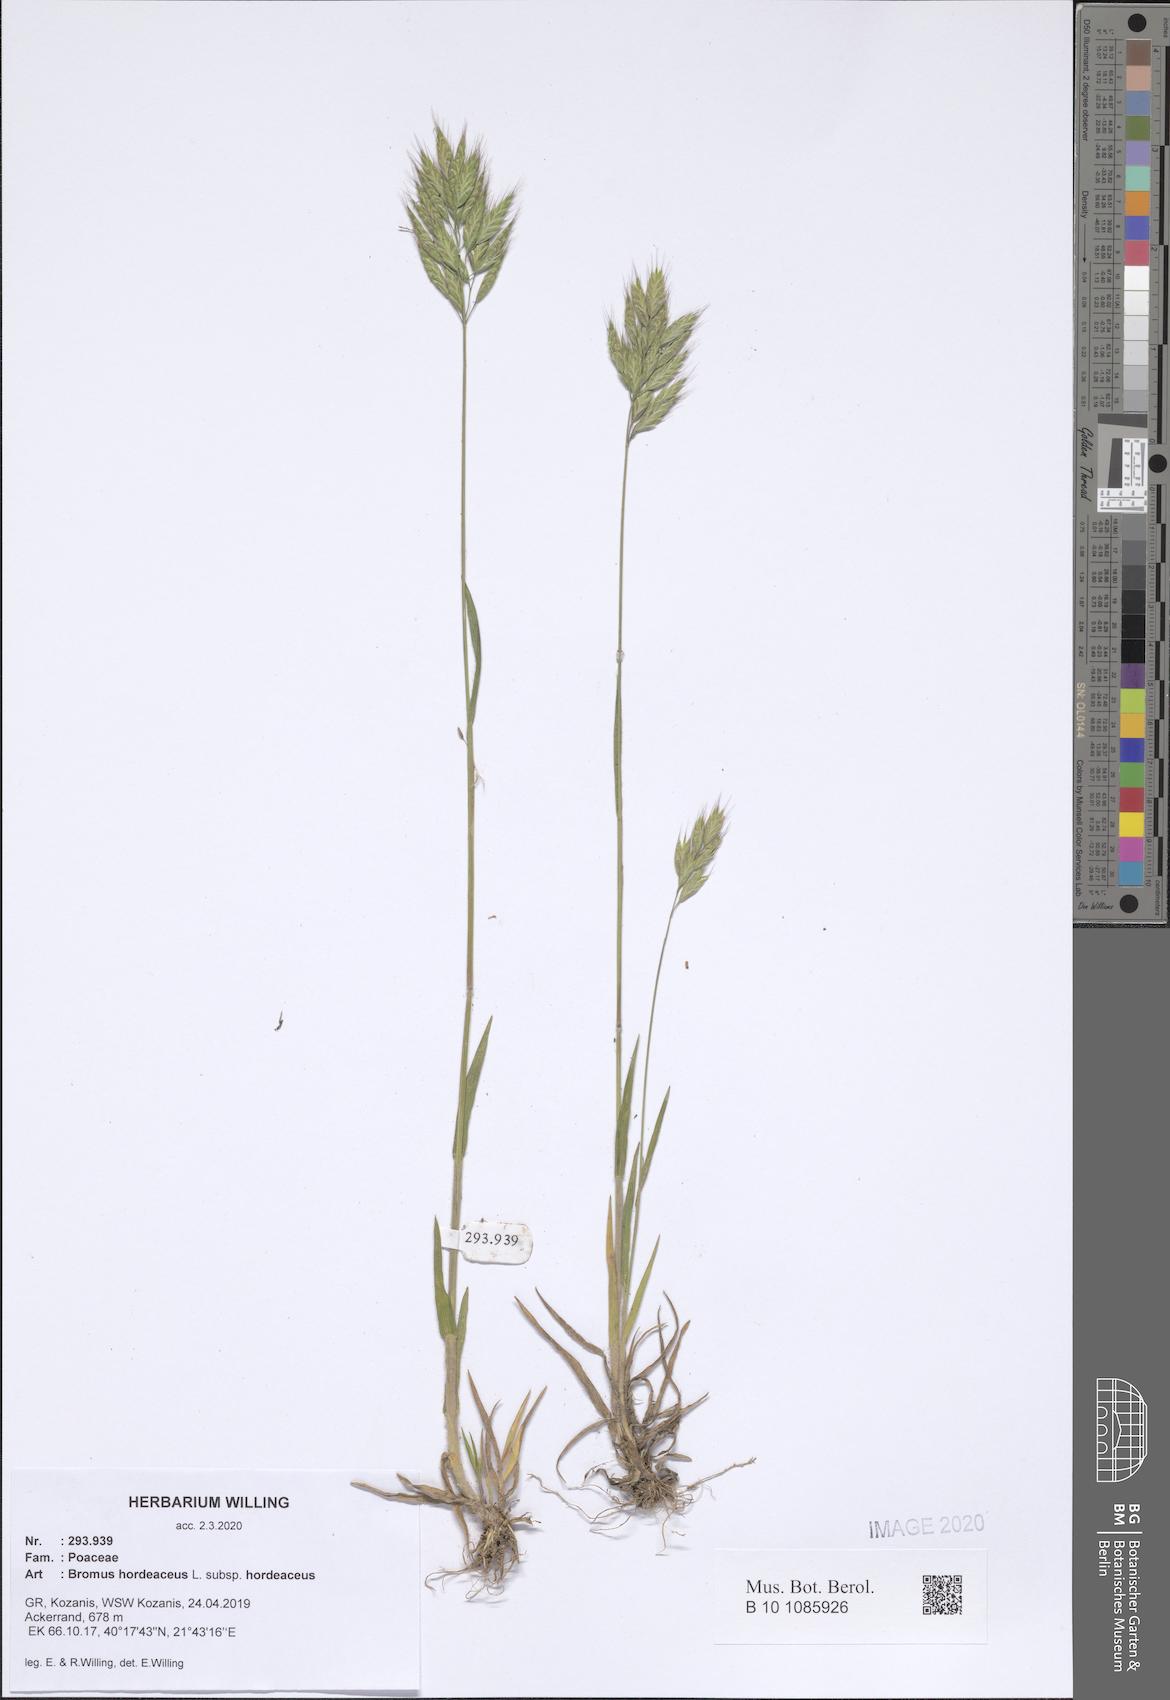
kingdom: Plantae
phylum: Tracheophyta
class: Liliopsida
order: Poales
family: Poaceae
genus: Bromus
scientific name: Bromus hordeaceus
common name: Soft brome
